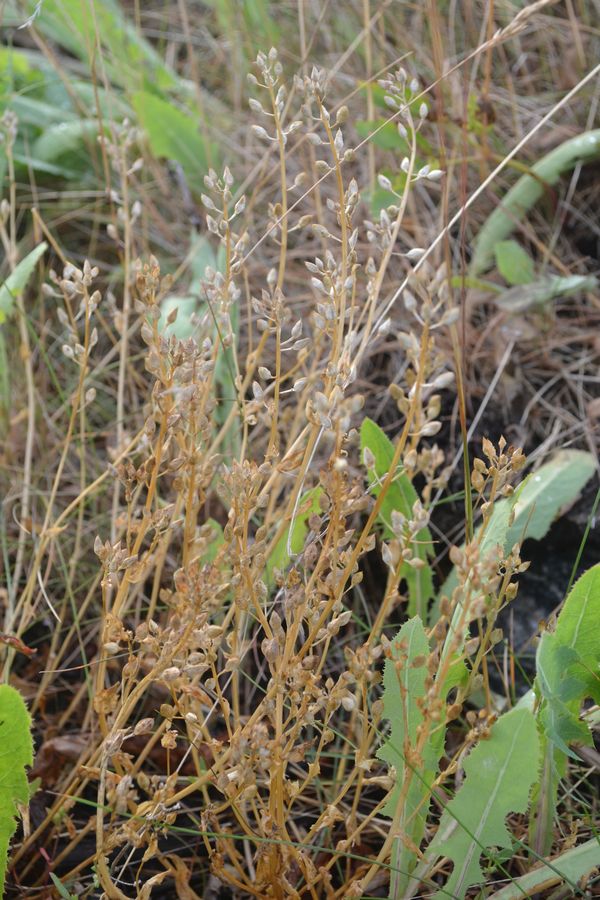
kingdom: Plantae
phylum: Tracheophyta
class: Magnoliopsida
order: Brassicales
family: Brassicaceae
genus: Cochlearia
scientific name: Cochlearia officinalis
